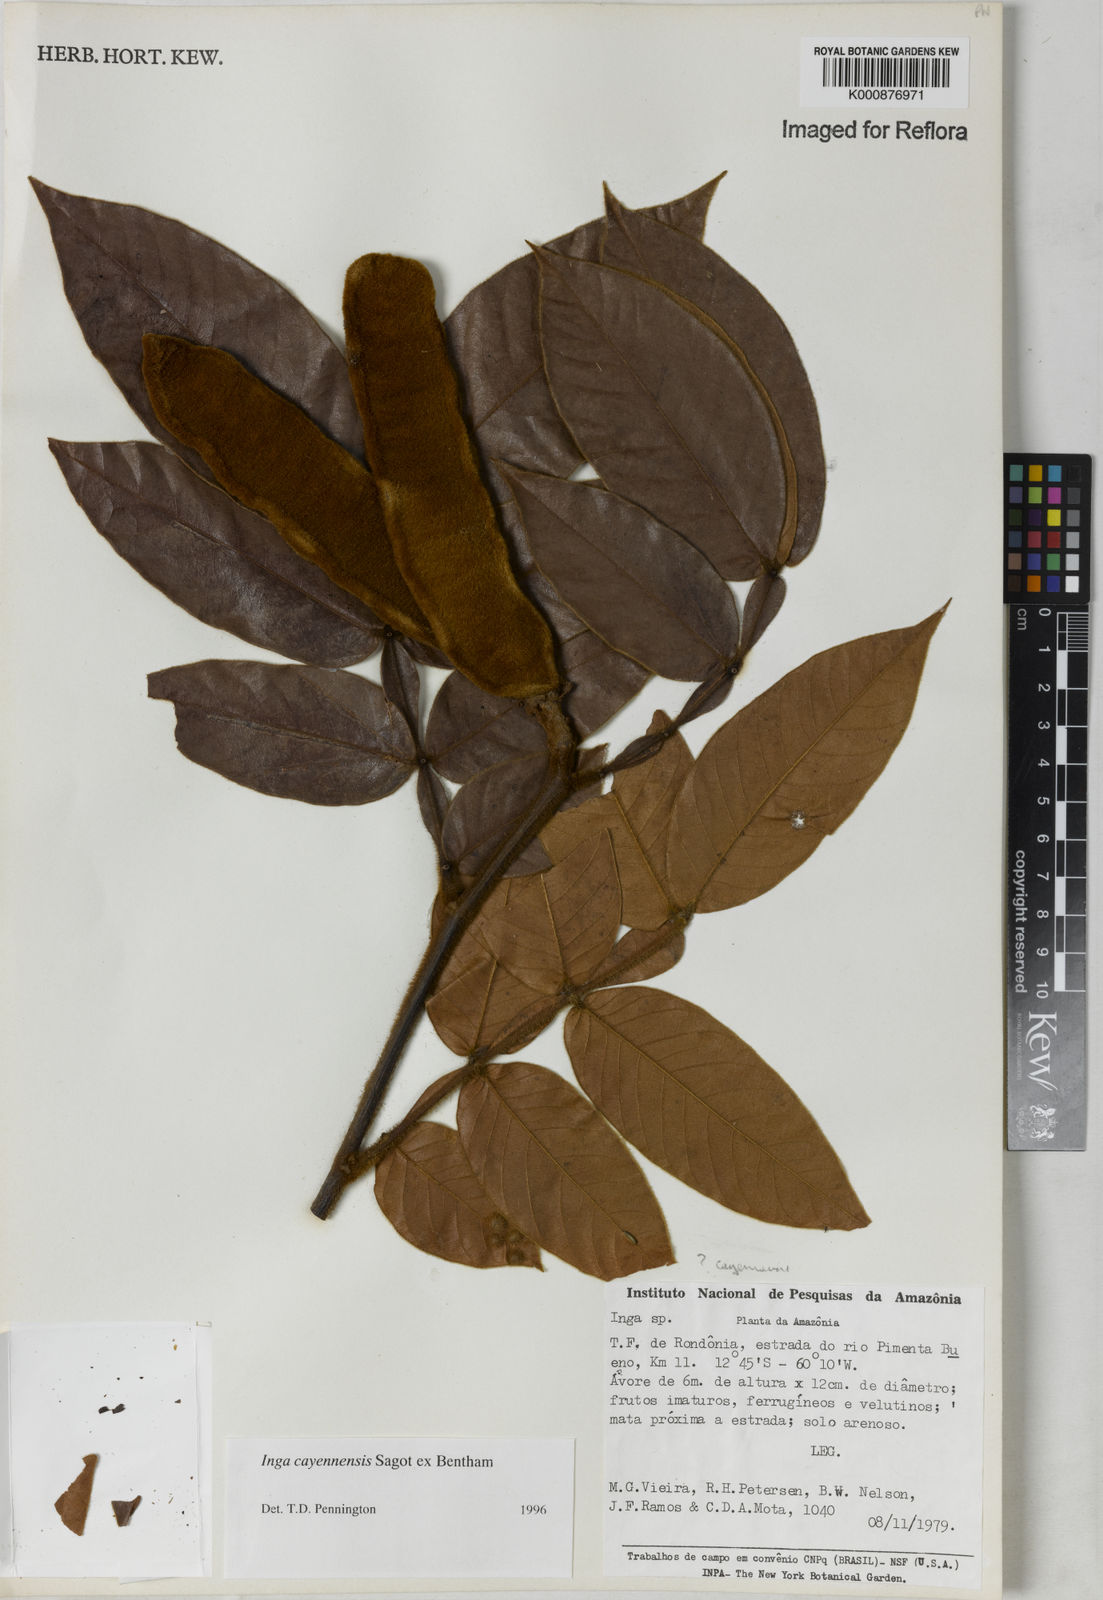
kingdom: Plantae
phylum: Tracheophyta
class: Magnoliopsida
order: Fabales
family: Fabaceae
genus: Inga
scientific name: Inga cayennensis
